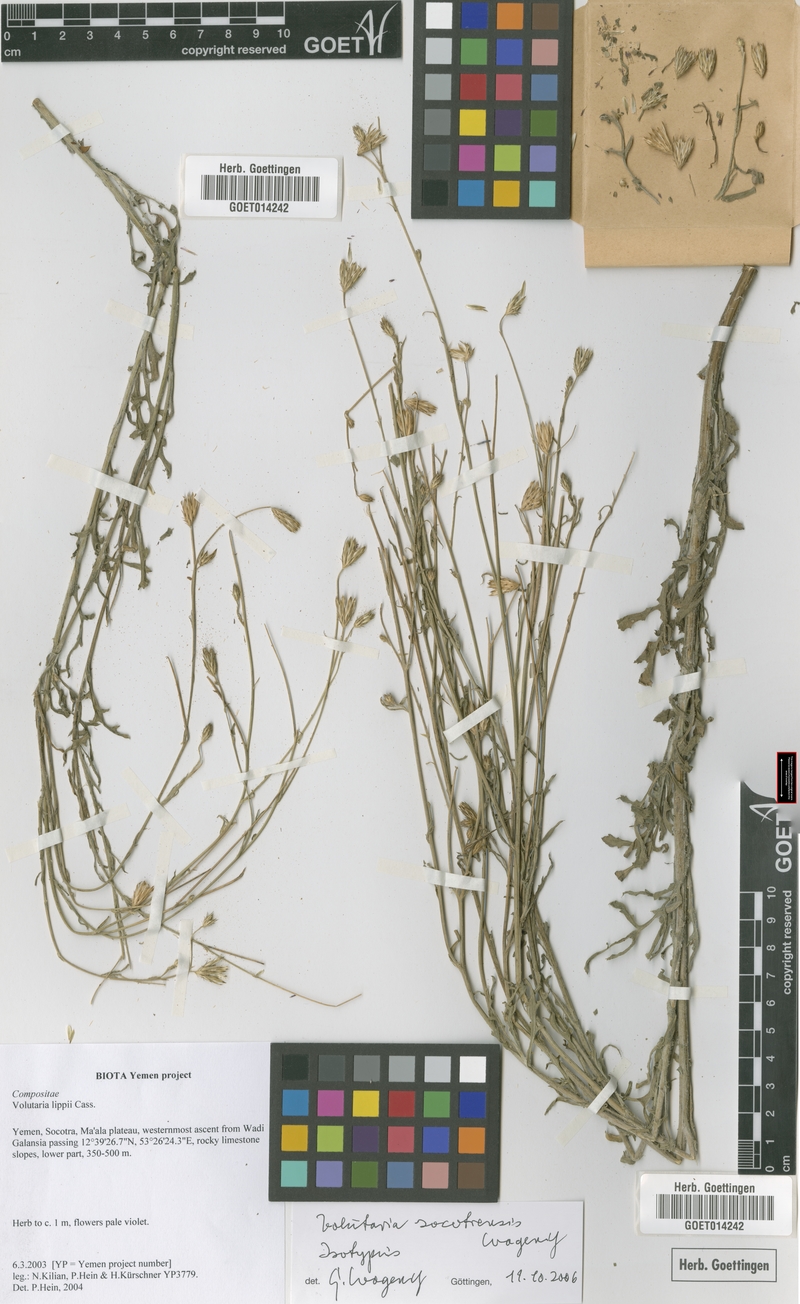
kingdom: Plantae
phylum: Tracheophyta
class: Magnoliopsida
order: Asterales
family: Asteraceae
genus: Volutaria
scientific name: Volutaria socotrensis
